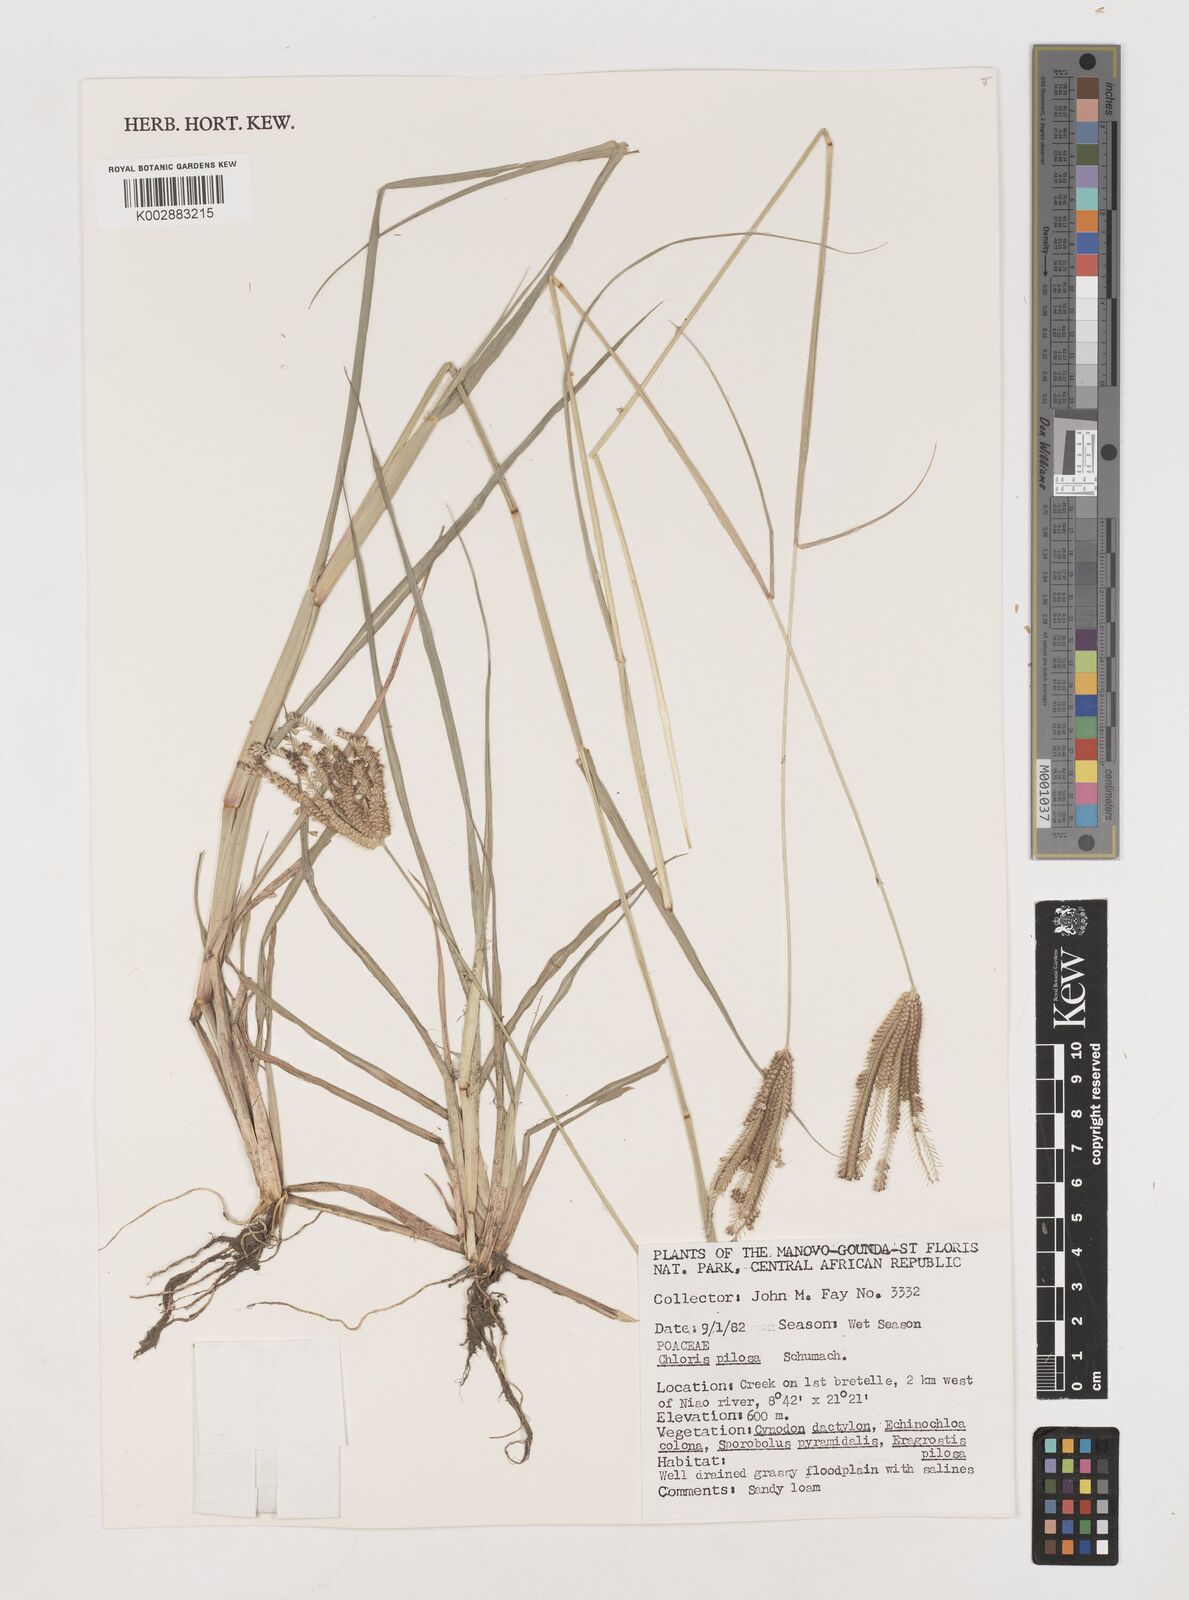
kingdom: Plantae
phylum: Tracheophyta
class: Liliopsida
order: Poales
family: Poaceae
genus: Chloris
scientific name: Chloris pilosa
